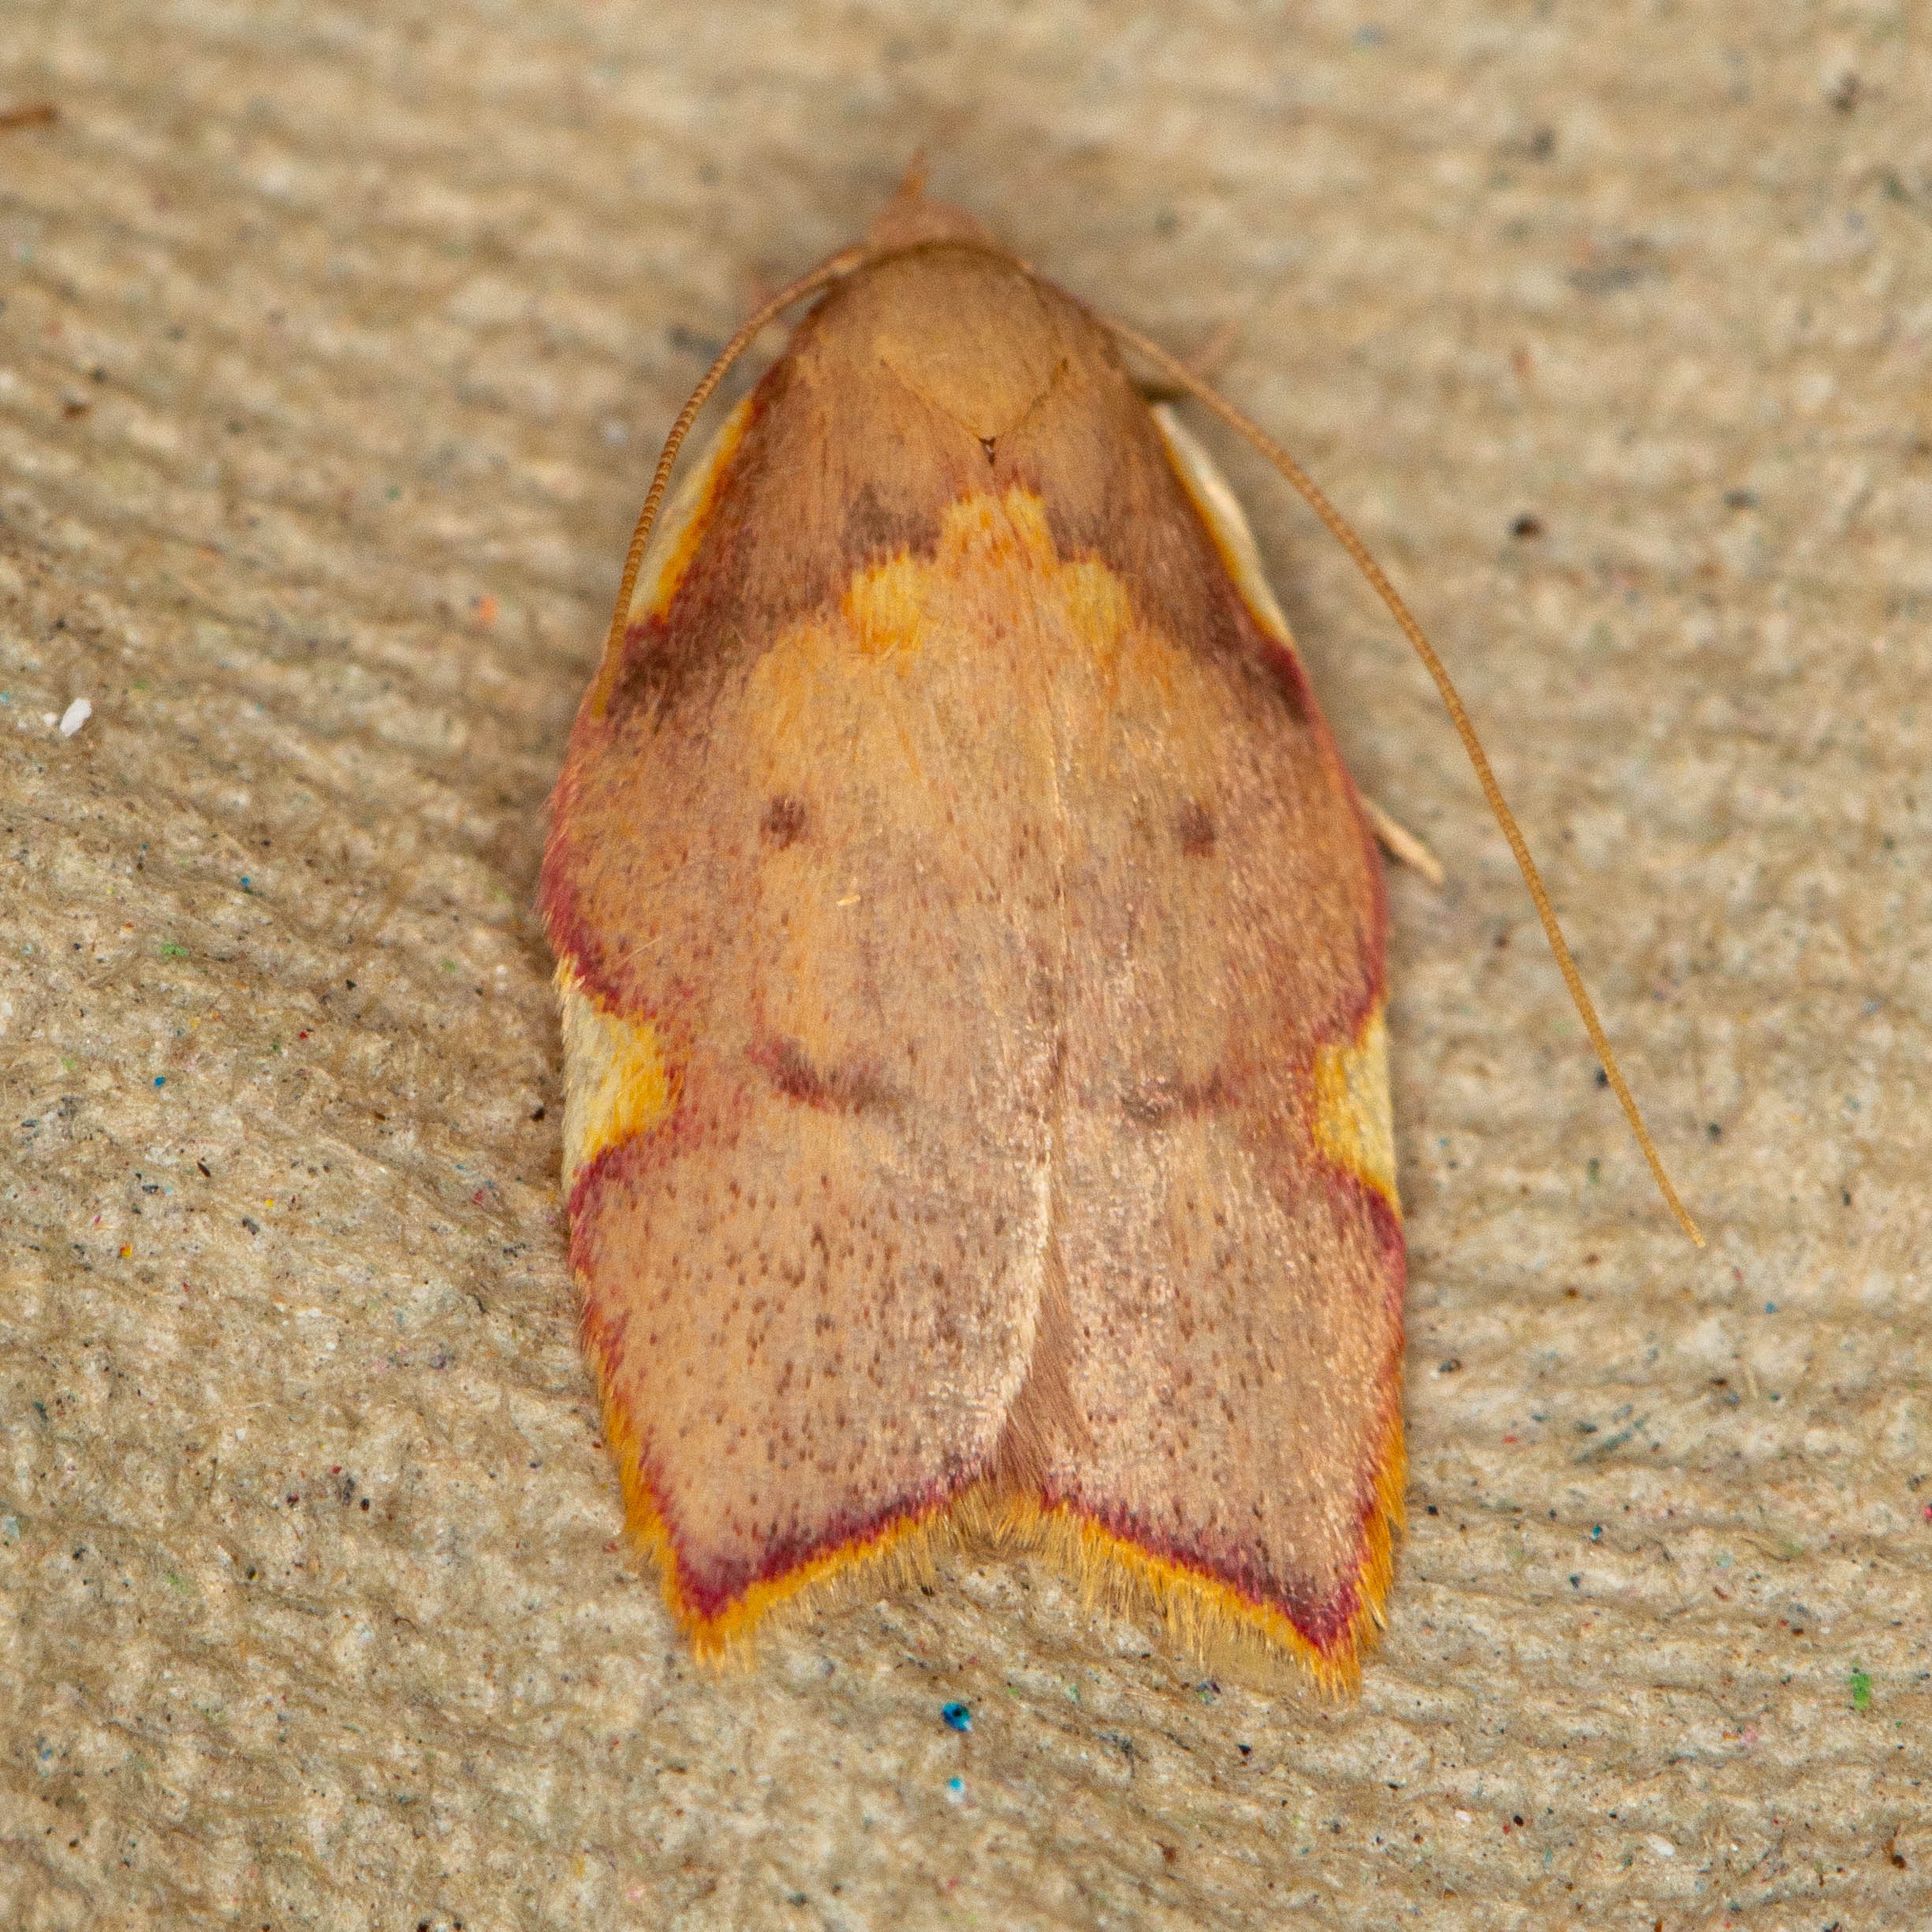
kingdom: Animalia
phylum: Arthropoda
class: Insecta
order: Lepidoptera
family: Peleopodidae
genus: Carcina
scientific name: Carcina quercana
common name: Egeprydvinge
